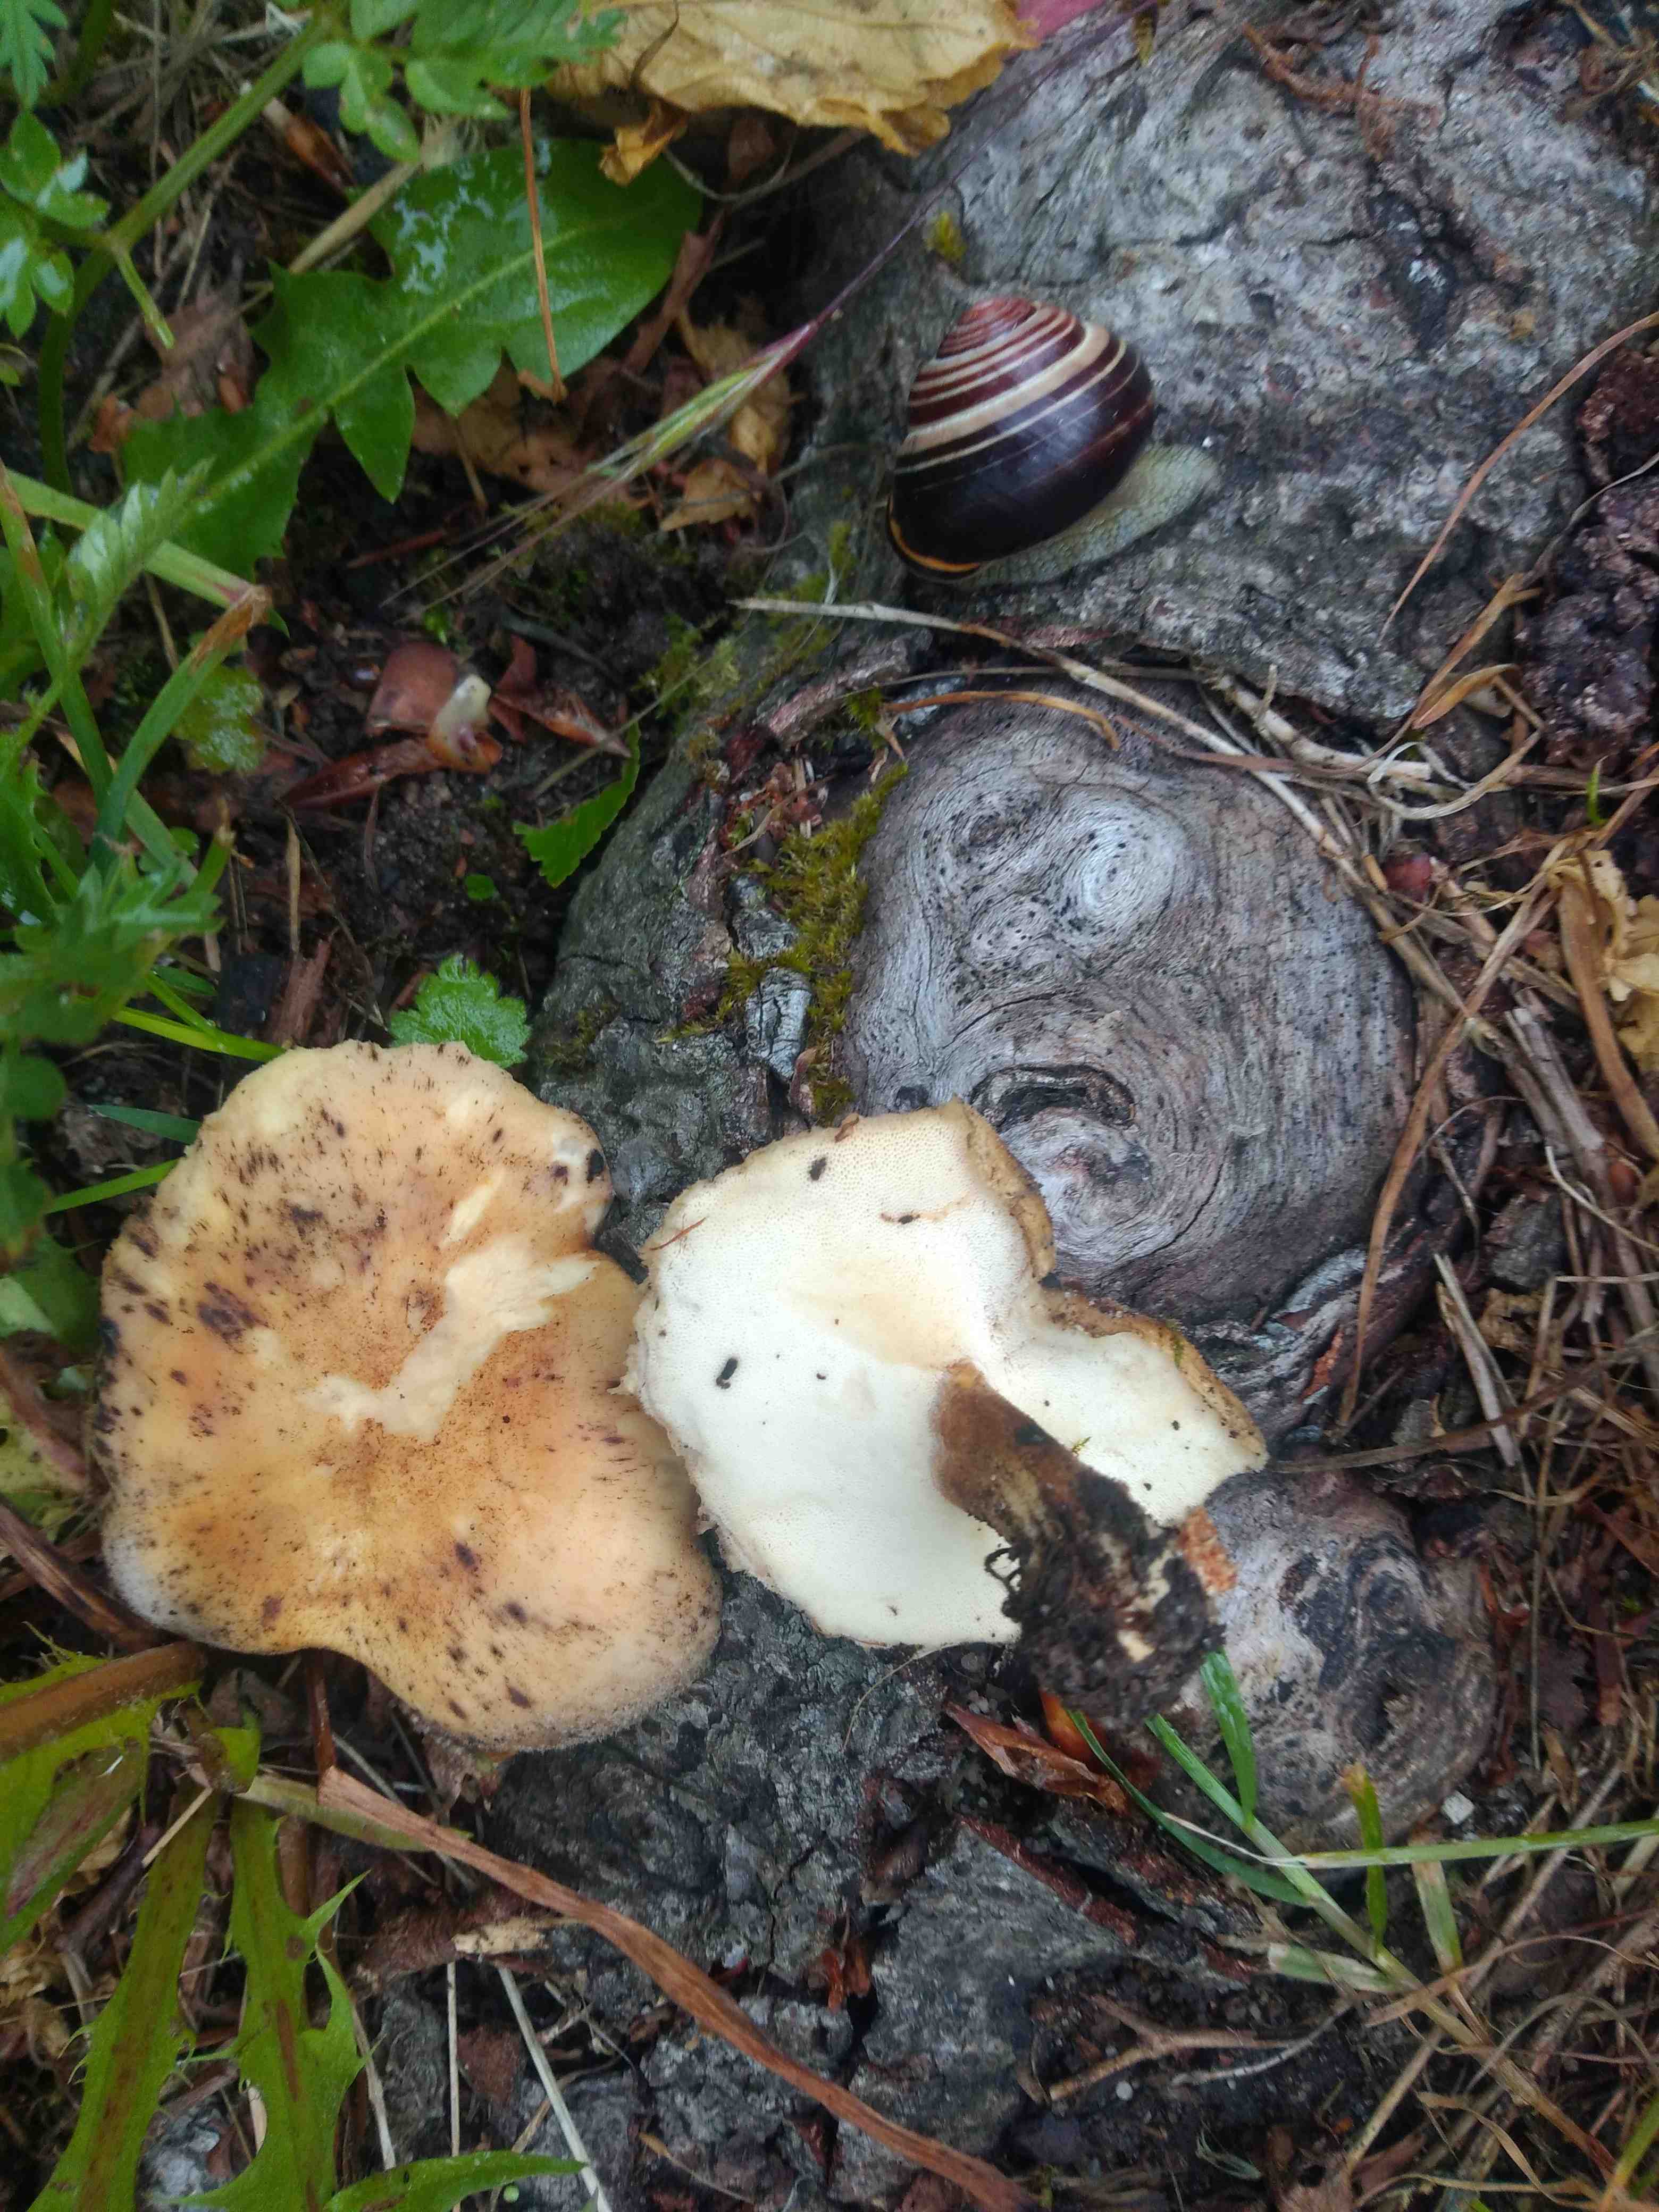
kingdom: Fungi
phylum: Basidiomycota
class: Agaricomycetes
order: Polyporales
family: Polyporaceae
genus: Lentinus
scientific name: Lentinus substrictus
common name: forårs-stilkporesvamp
